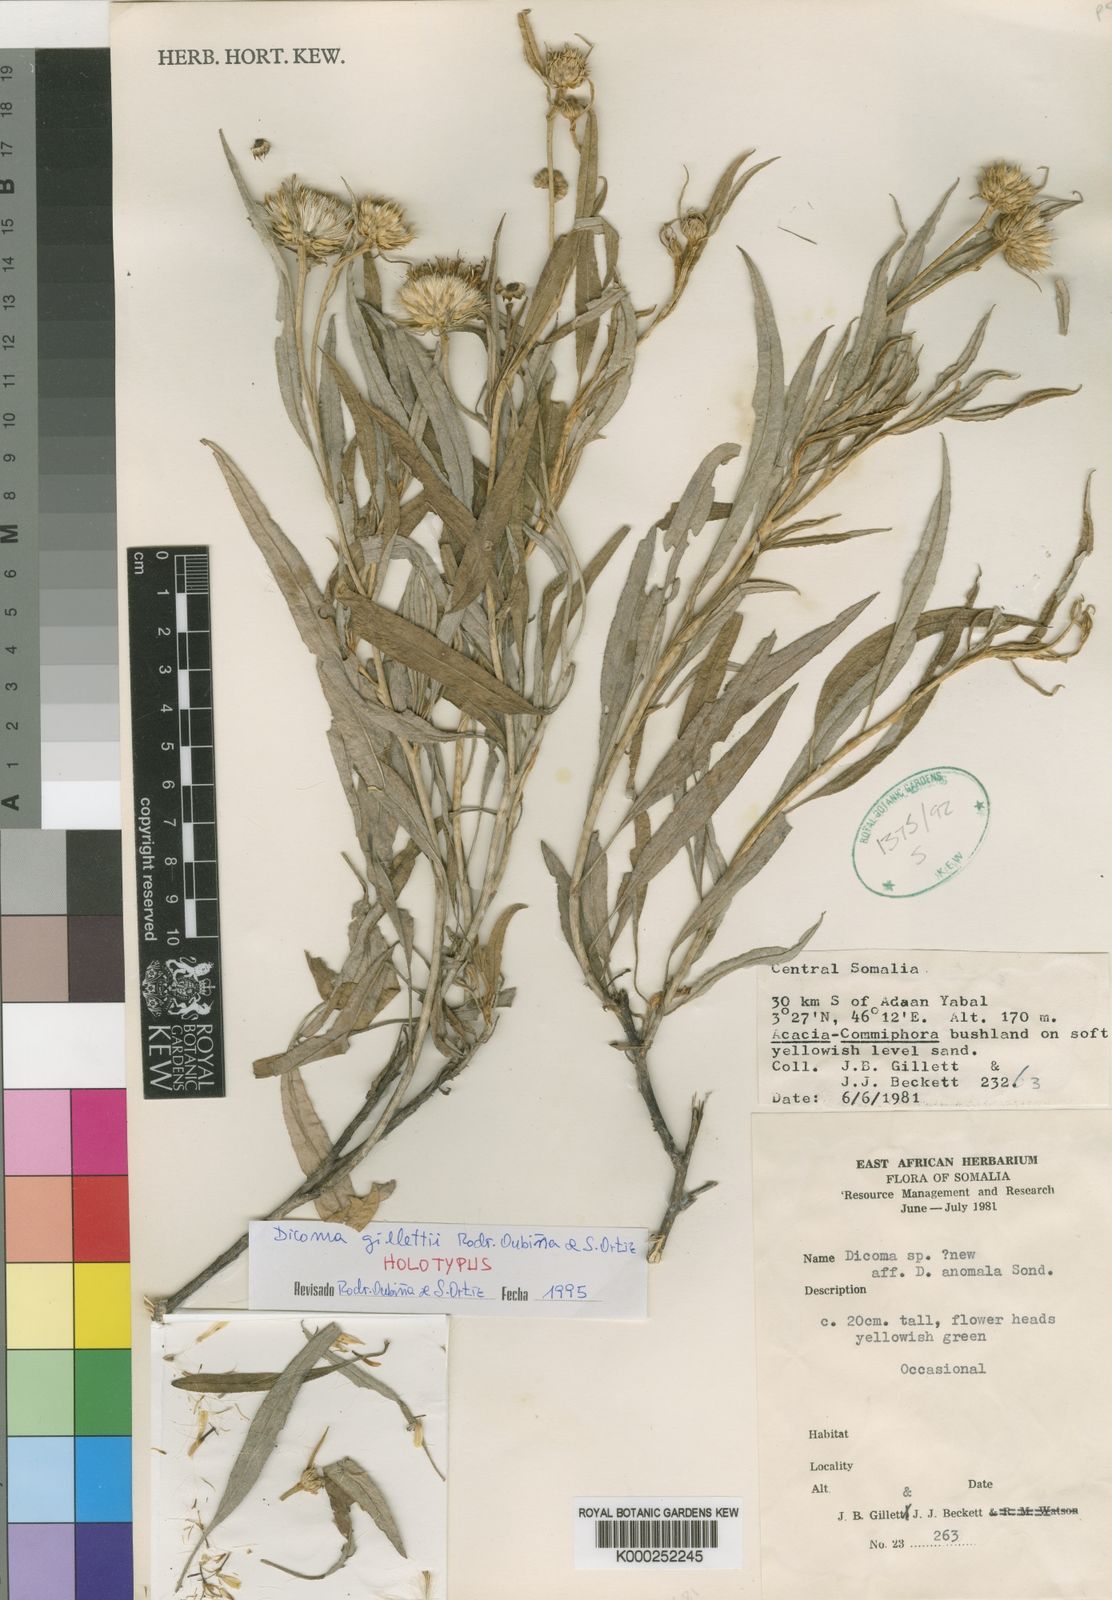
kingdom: Plantae
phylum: Tracheophyta
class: Magnoliopsida
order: Asterales
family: Asteraceae
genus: Dicoma
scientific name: Dicoma
